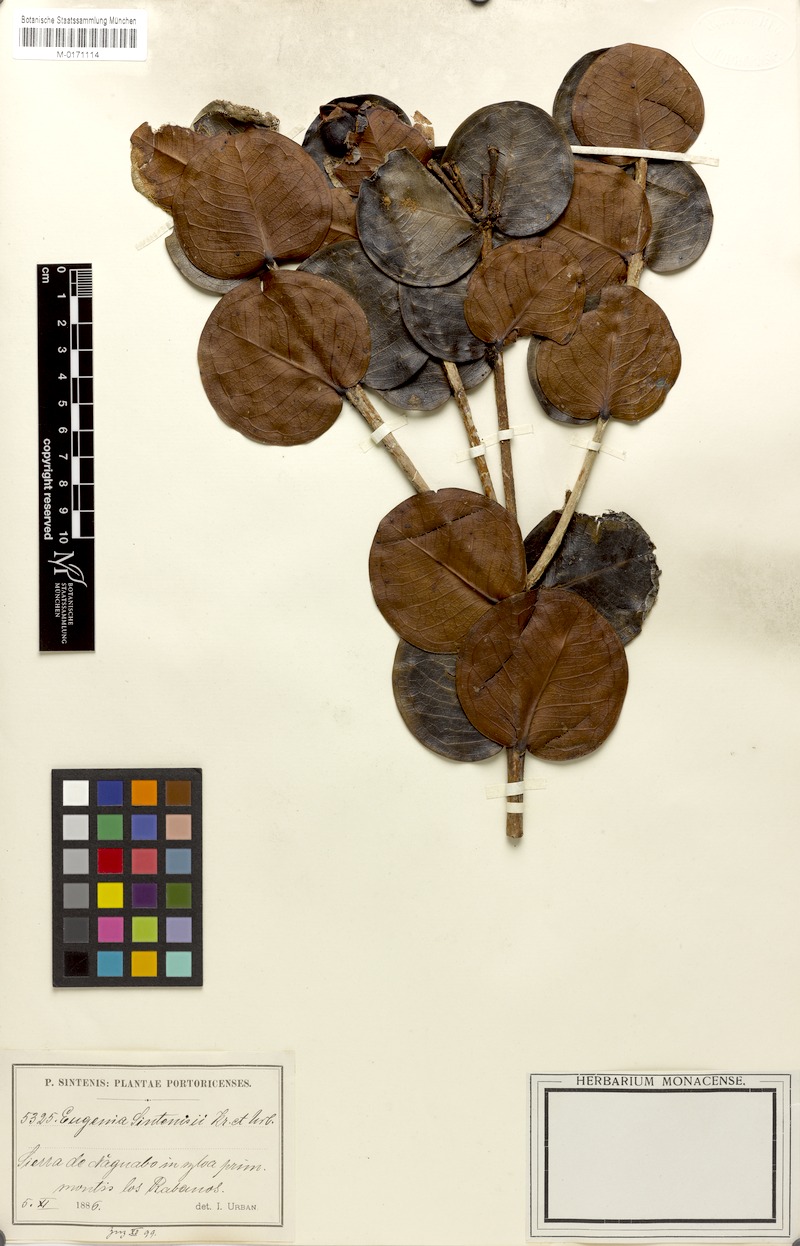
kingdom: Plantae
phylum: Tracheophyta
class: Magnoliopsida
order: Myrtales
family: Myrtaceae
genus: Eugenia
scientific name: Eugenia cordata
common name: Lathberry
